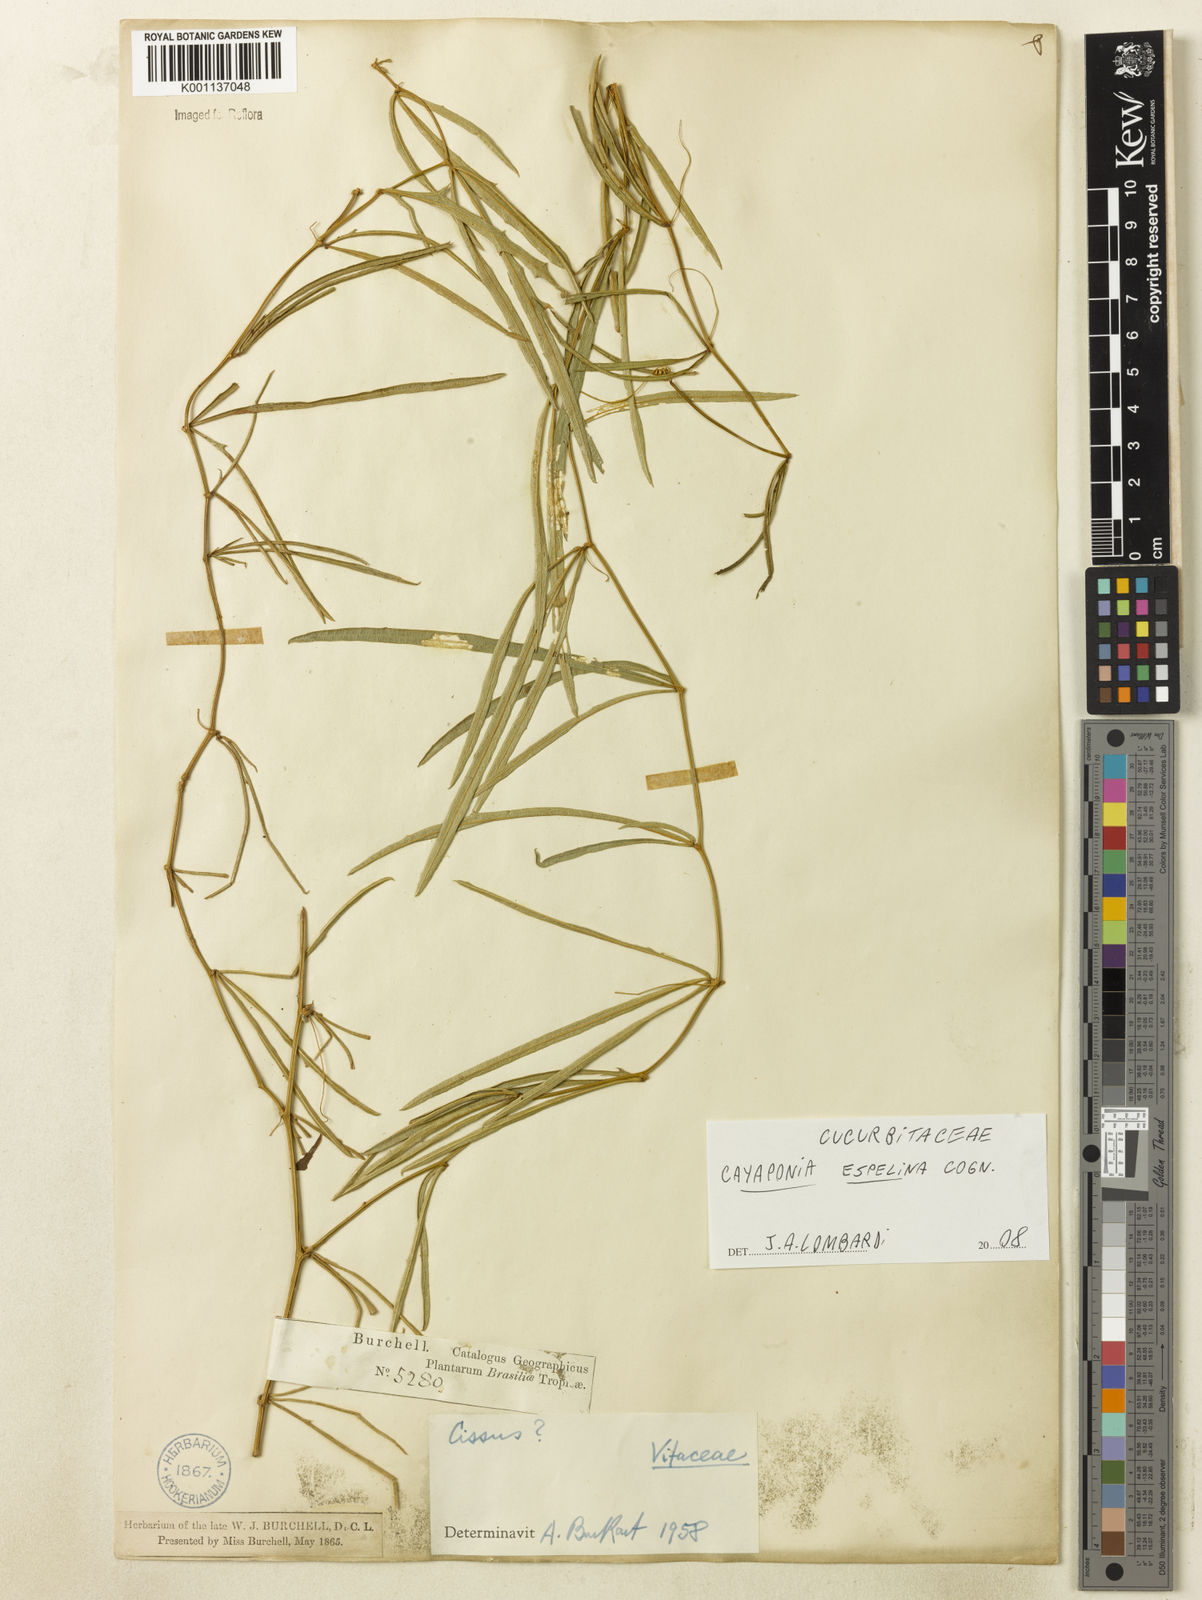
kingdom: Plantae
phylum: Tracheophyta
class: Magnoliopsida
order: Cucurbitales
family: Cucurbitaceae
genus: Cayaponia
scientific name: Cayaponia espelina
